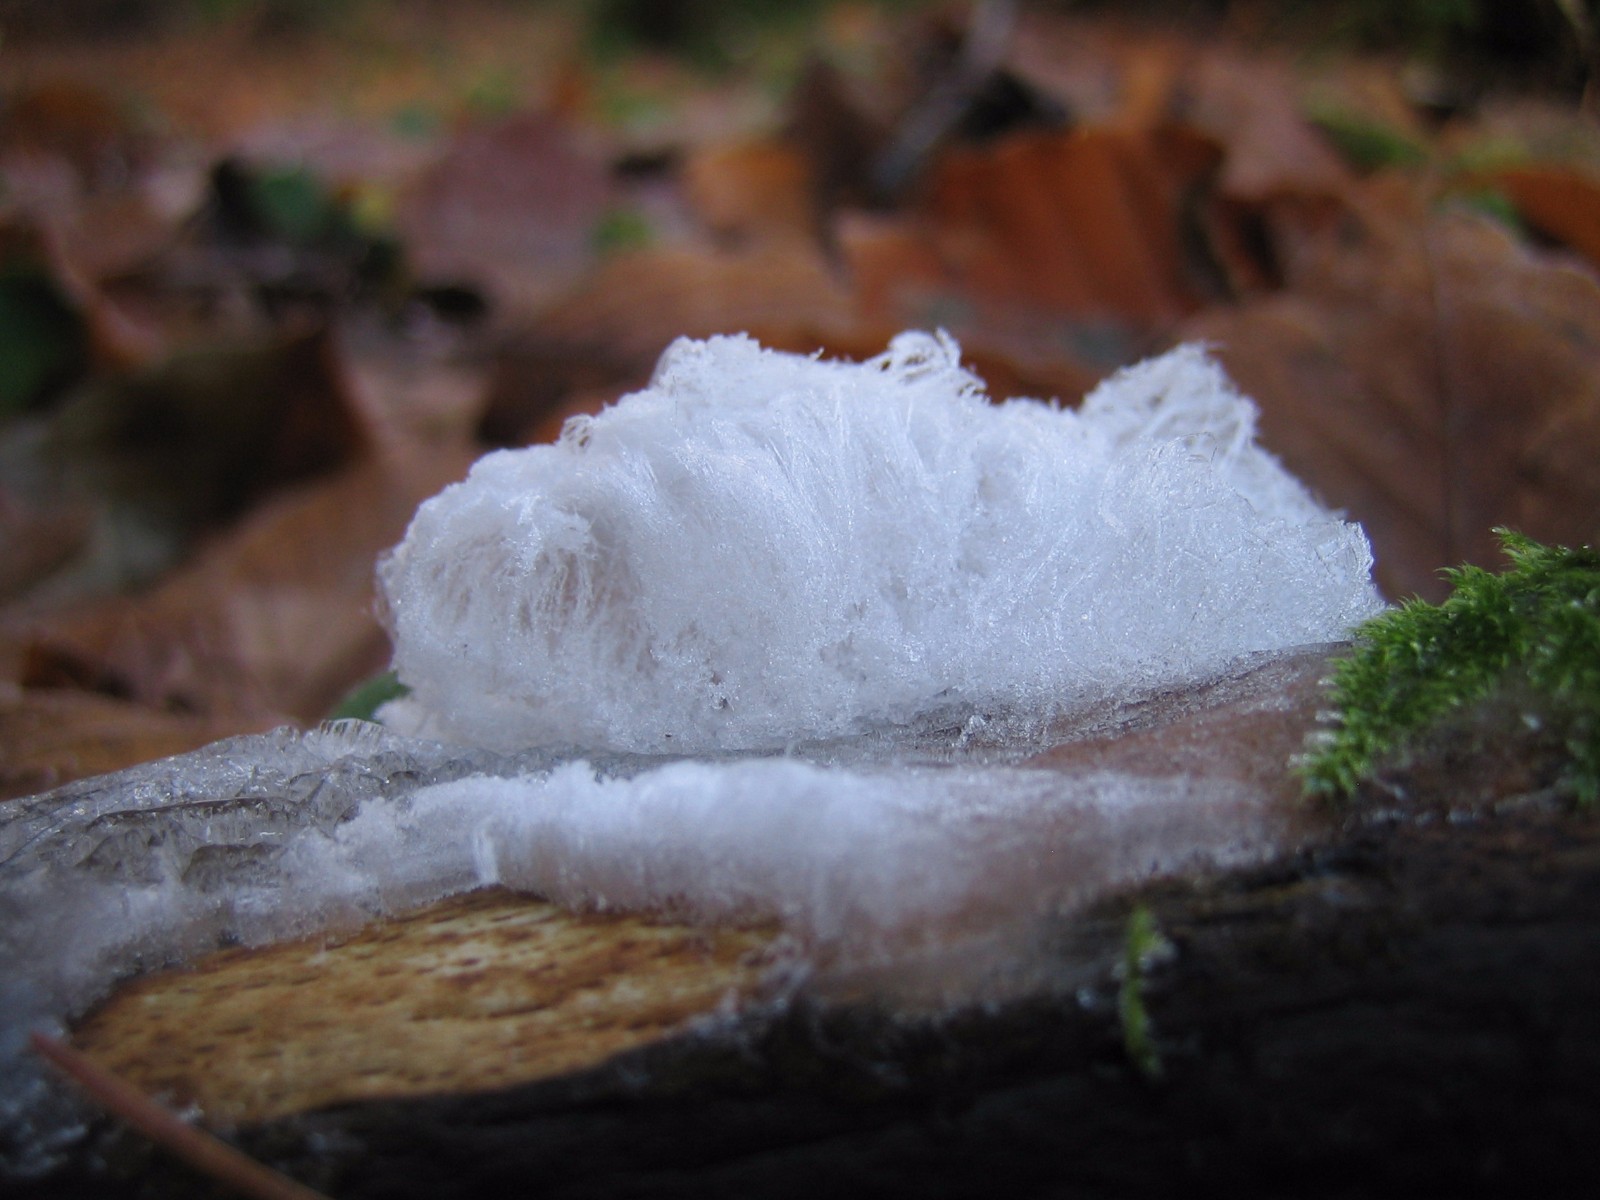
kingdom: Fungi
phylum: Basidiomycota
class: Tremellomycetes
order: Tremellales
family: Exidiaceae
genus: Exidiopsis
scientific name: Exidiopsis effusa
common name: smuk bævrehinde
